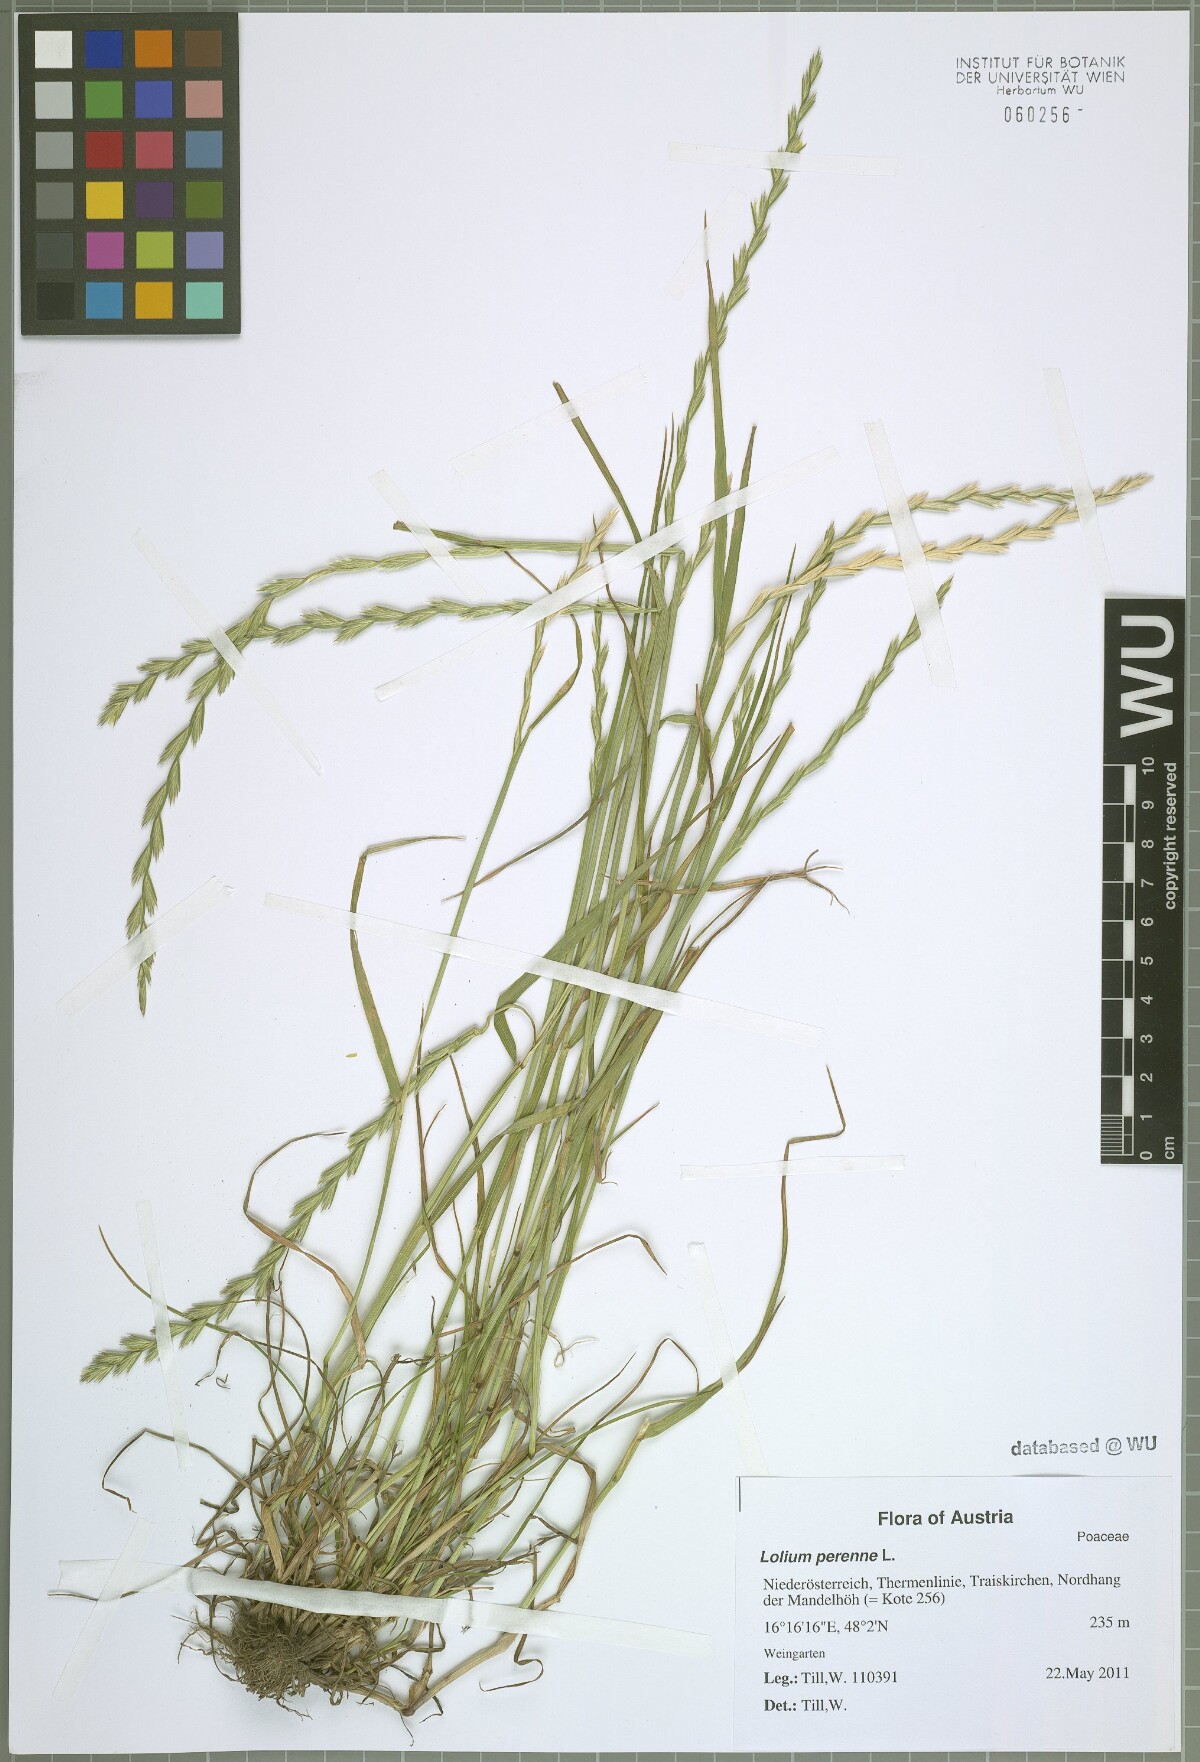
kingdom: Plantae
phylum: Tracheophyta
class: Liliopsida
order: Poales
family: Poaceae
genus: Lolium
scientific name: Lolium perenne
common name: Perennial ryegrass
